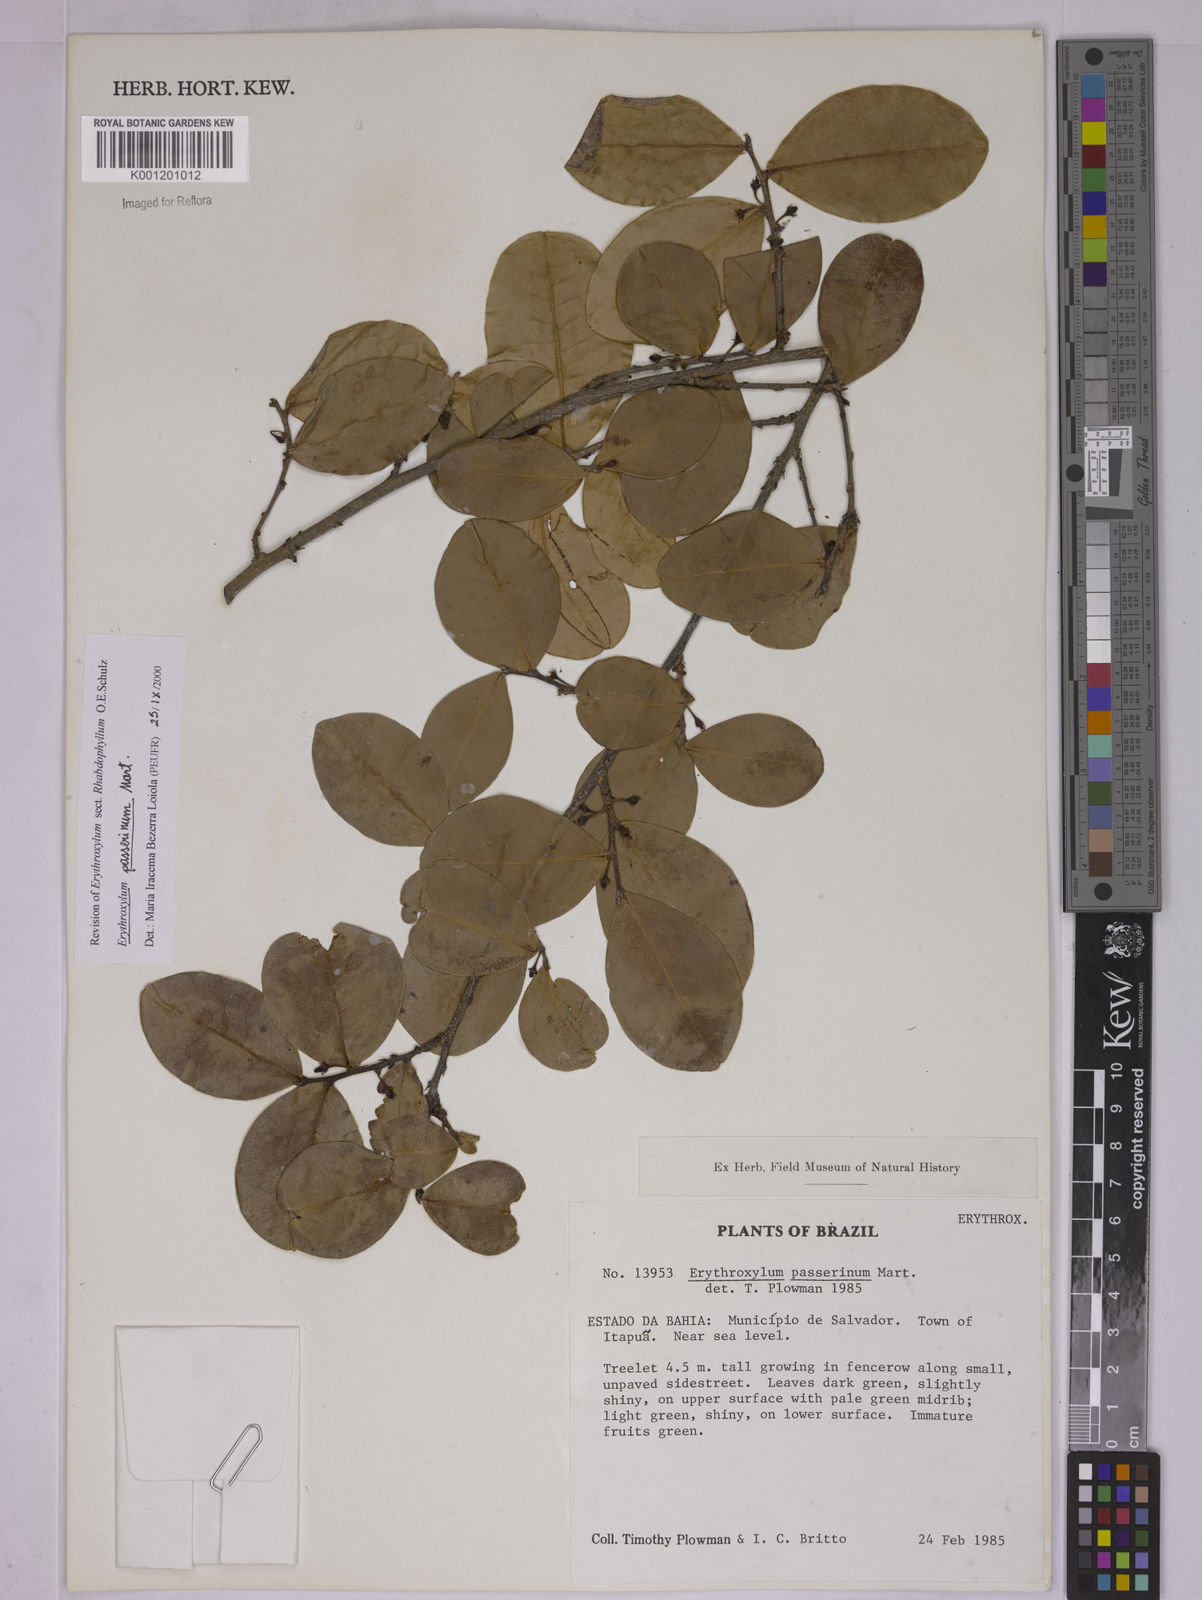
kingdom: Plantae
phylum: Tracheophyta
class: Magnoliopsida
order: Malpighiales
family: Erythroxylaceae
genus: Erythroxylum
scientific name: Erythroxylum passerinum
